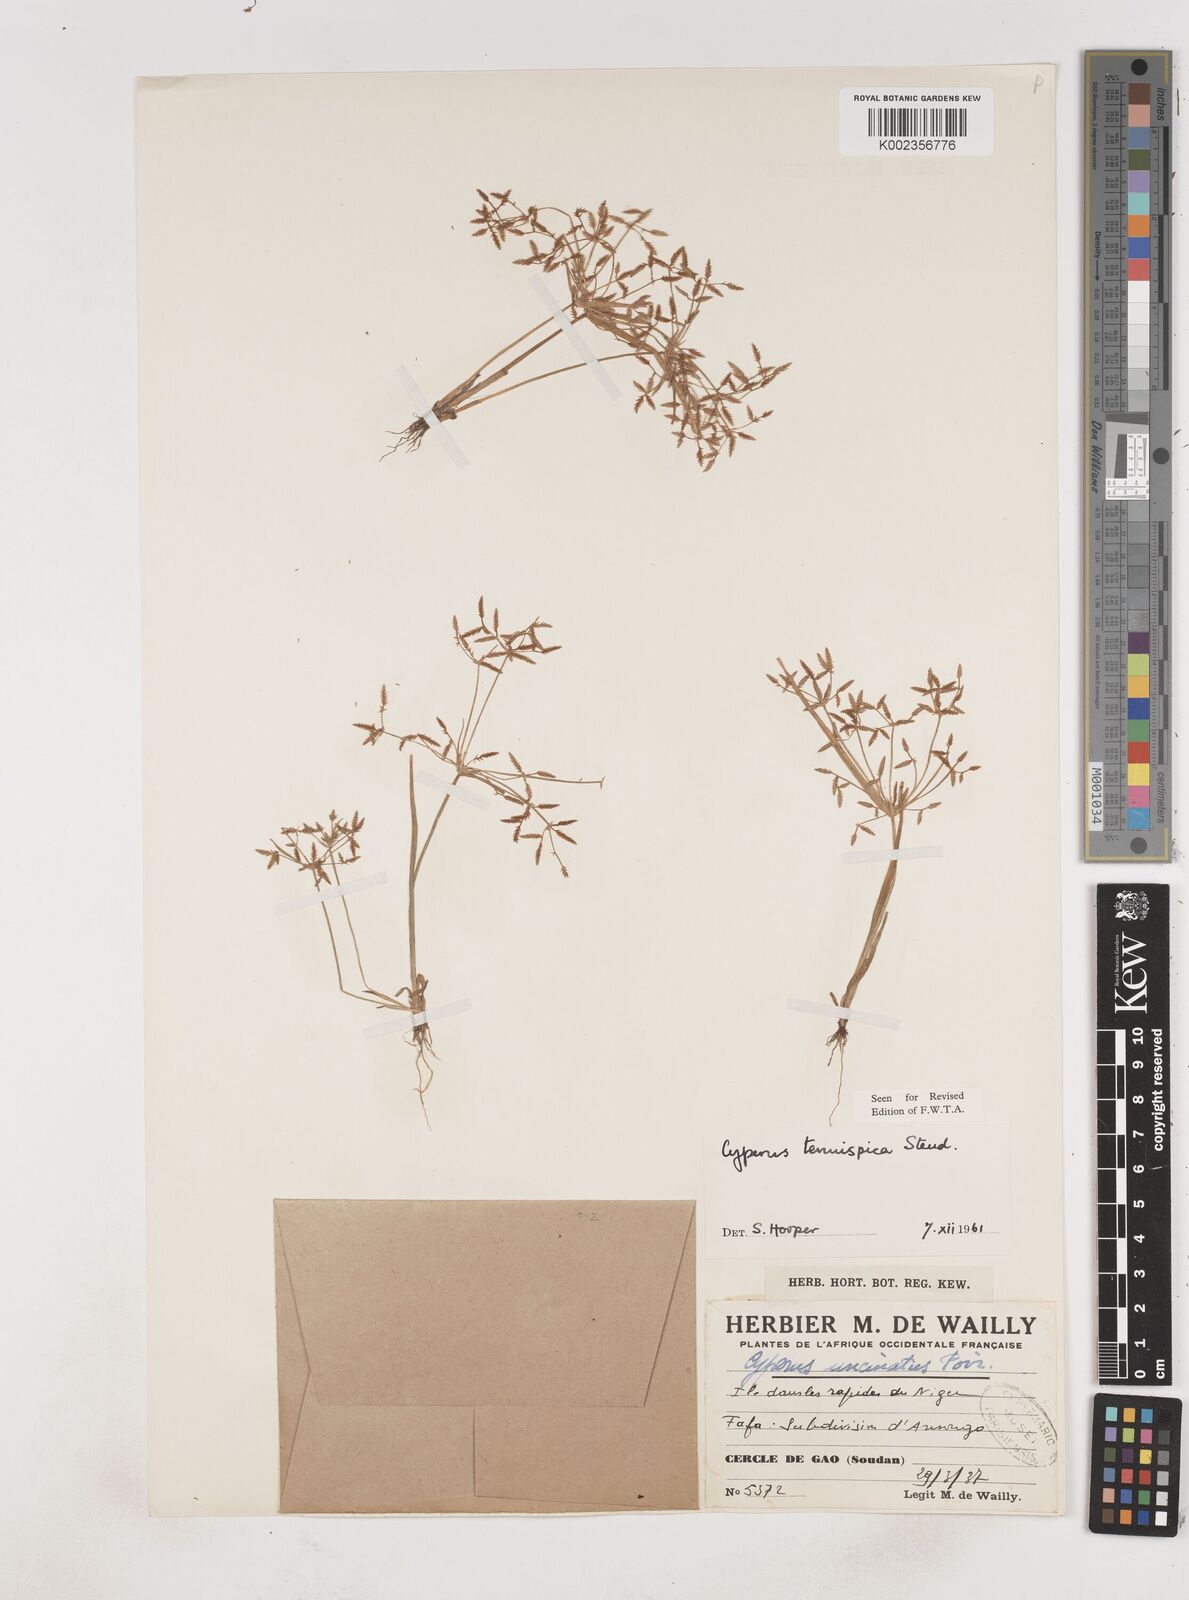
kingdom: Plantae
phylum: Tracheophyta
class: Liliopsida
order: Poales
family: Cyperaceae
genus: Cyperus
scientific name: Cyperus tenuispica
